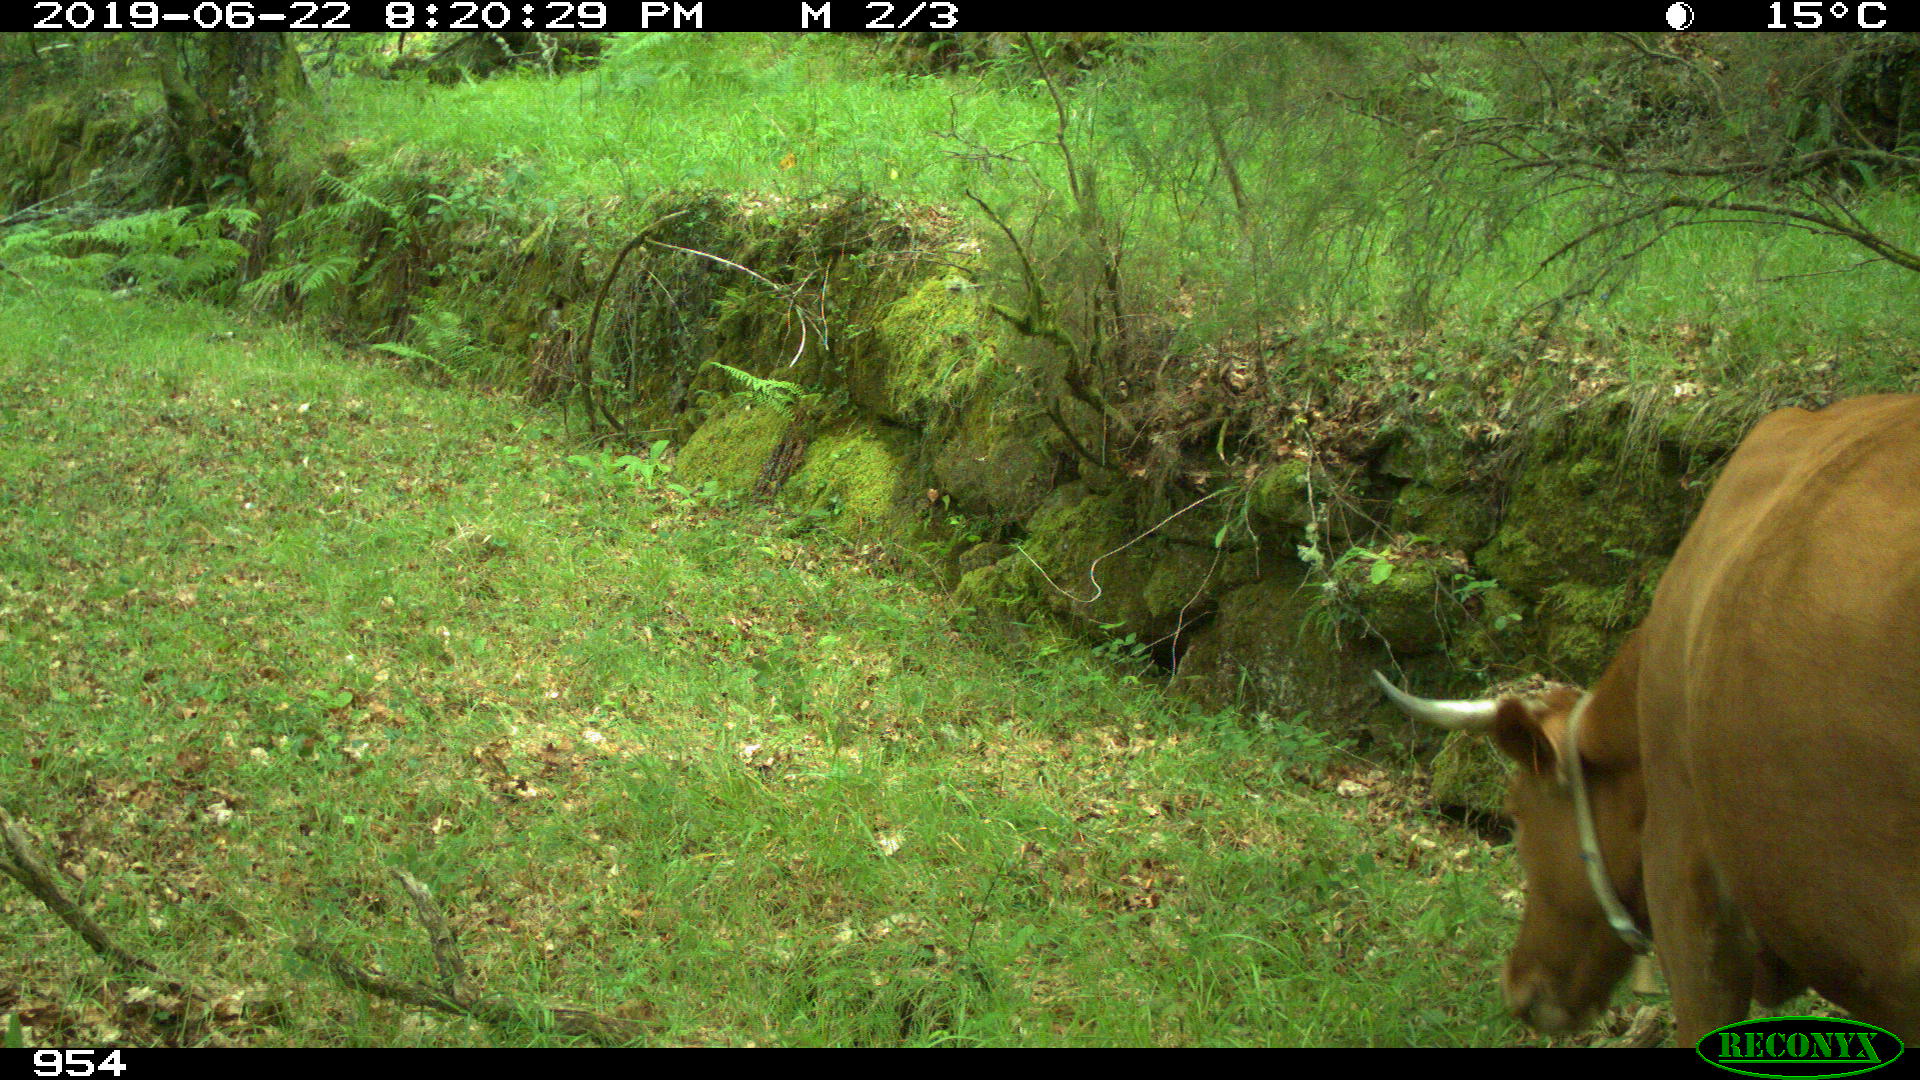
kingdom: Animalia
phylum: Chordata
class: Mammalia
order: Artiodactyla
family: Bovidae
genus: Bos
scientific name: Bos taurus
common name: Domesticated cattle
